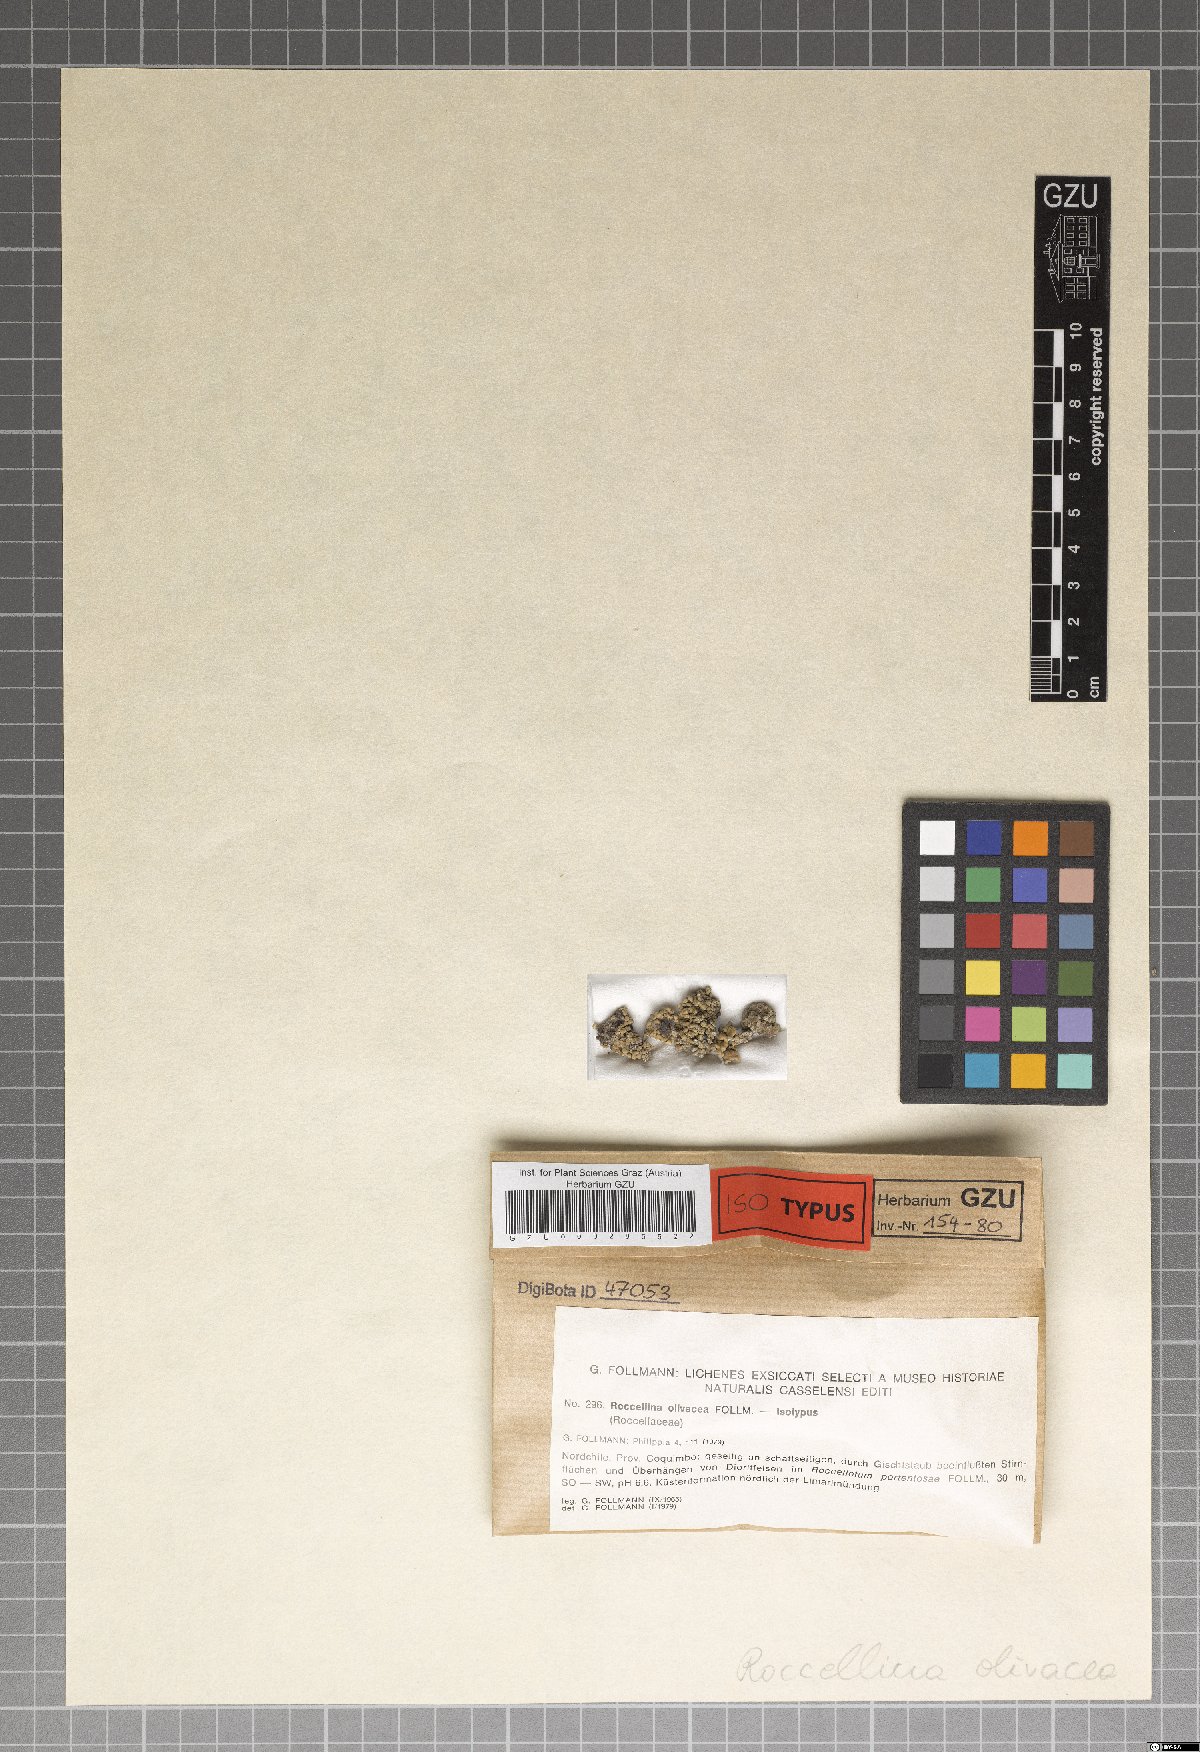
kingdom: Fungi
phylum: Ascomycota
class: Arthoniomycetes
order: Arthoniales
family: Roccellaceae
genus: Roccellina
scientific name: Roccellina accedens
